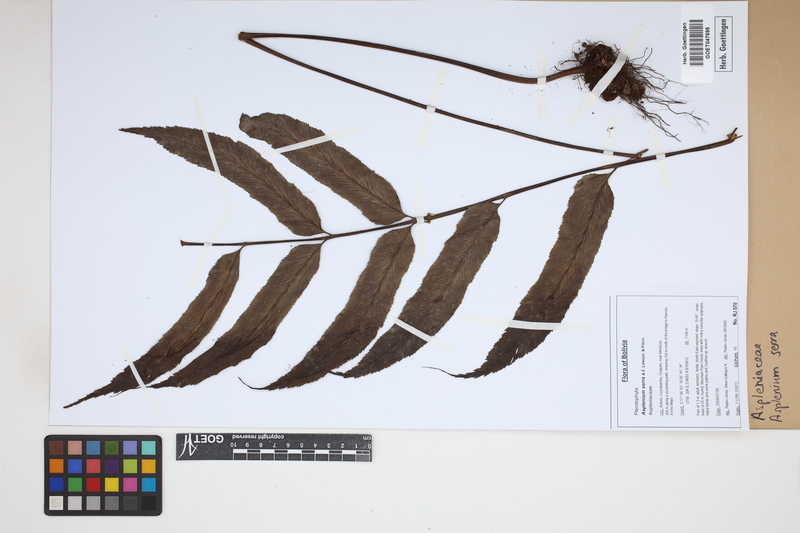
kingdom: Plantae
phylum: Tracheophyta
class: Polypodiopsida
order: Polypodiales
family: Aspleniaceae
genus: Asplenium
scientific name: Asplenium serra
